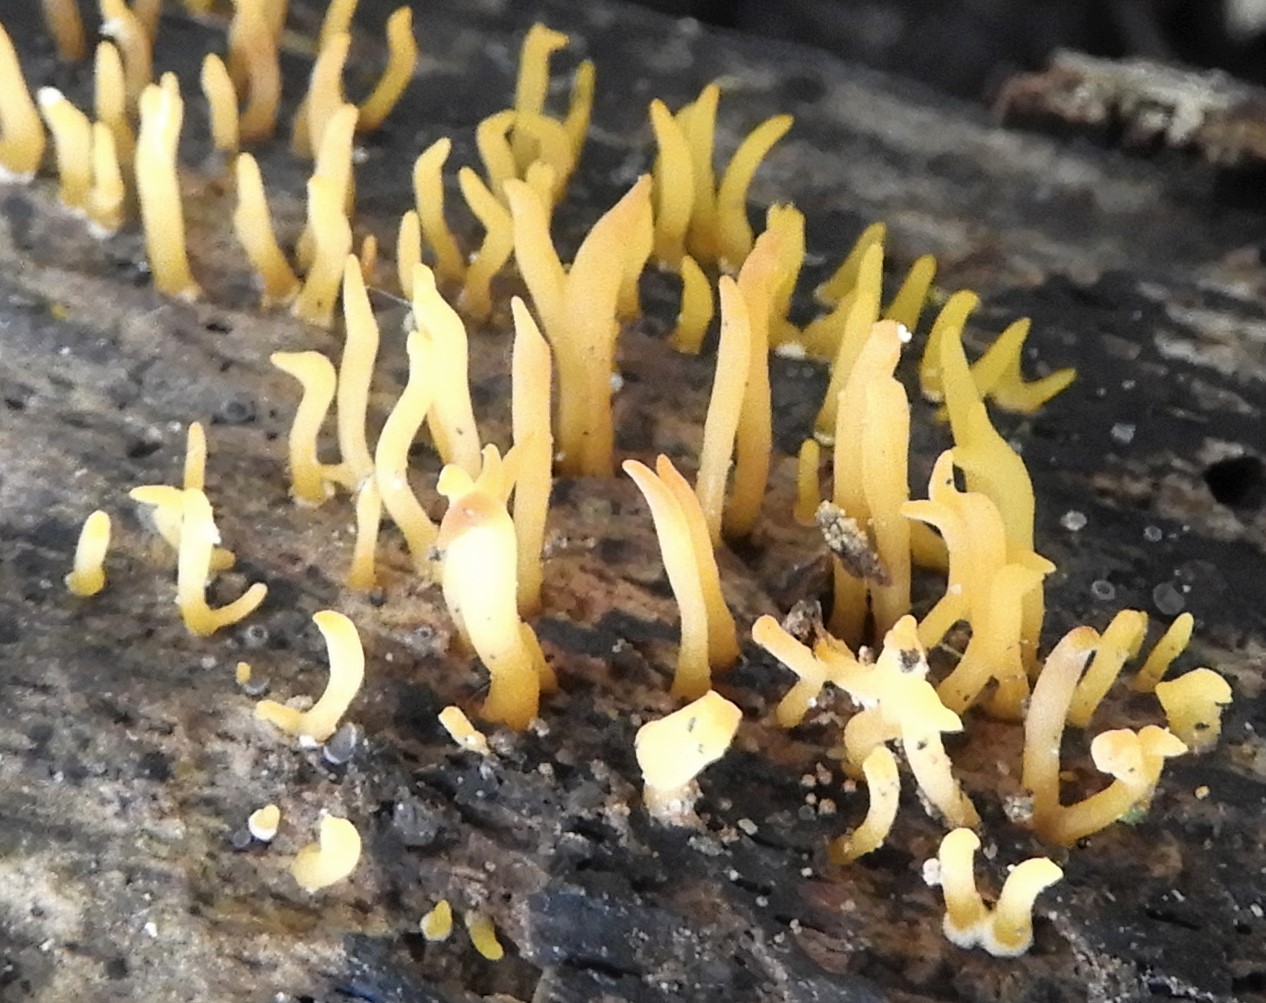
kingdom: Fungi
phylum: Basidiomycota
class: Dacrymycetes
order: Dacrymycetales
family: Dacrymycetaceae
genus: Calocera
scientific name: Calocera cornea
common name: liden guldgaffel
